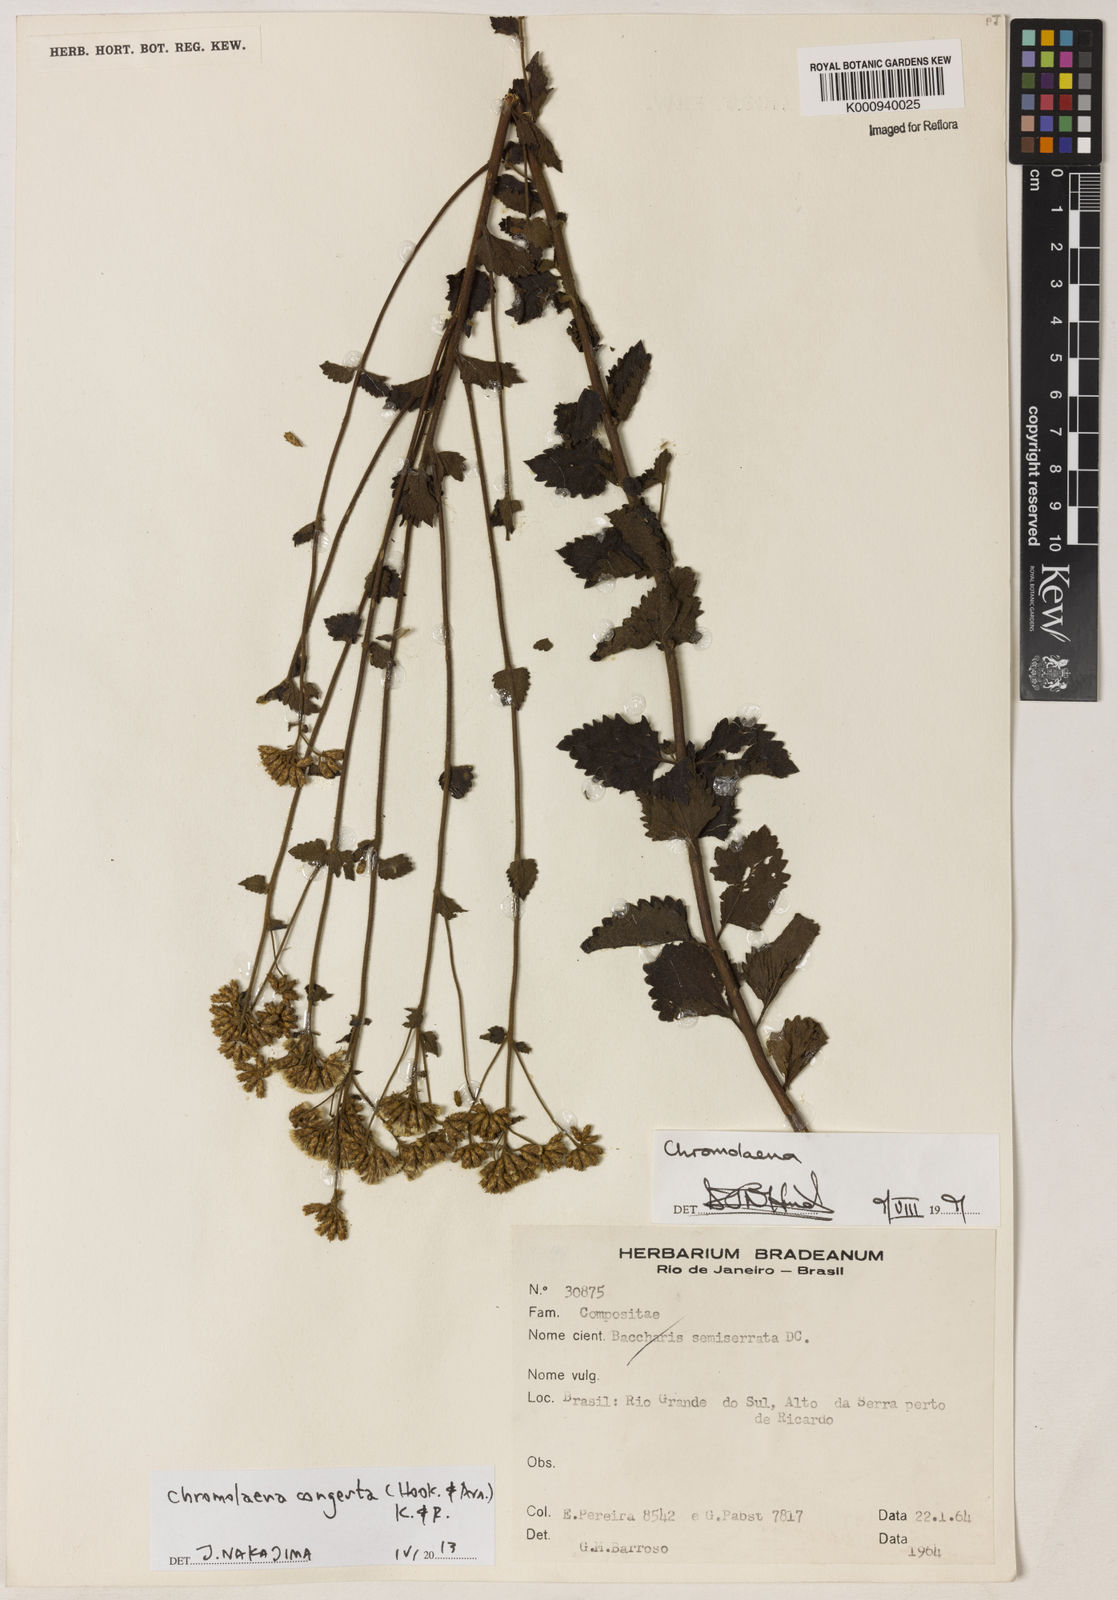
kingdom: Plantae
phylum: Tracheophyta
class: Magnoliopsida
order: Asterales
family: Asteraceae
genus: Chromolaena
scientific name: Chromolaena congesta
